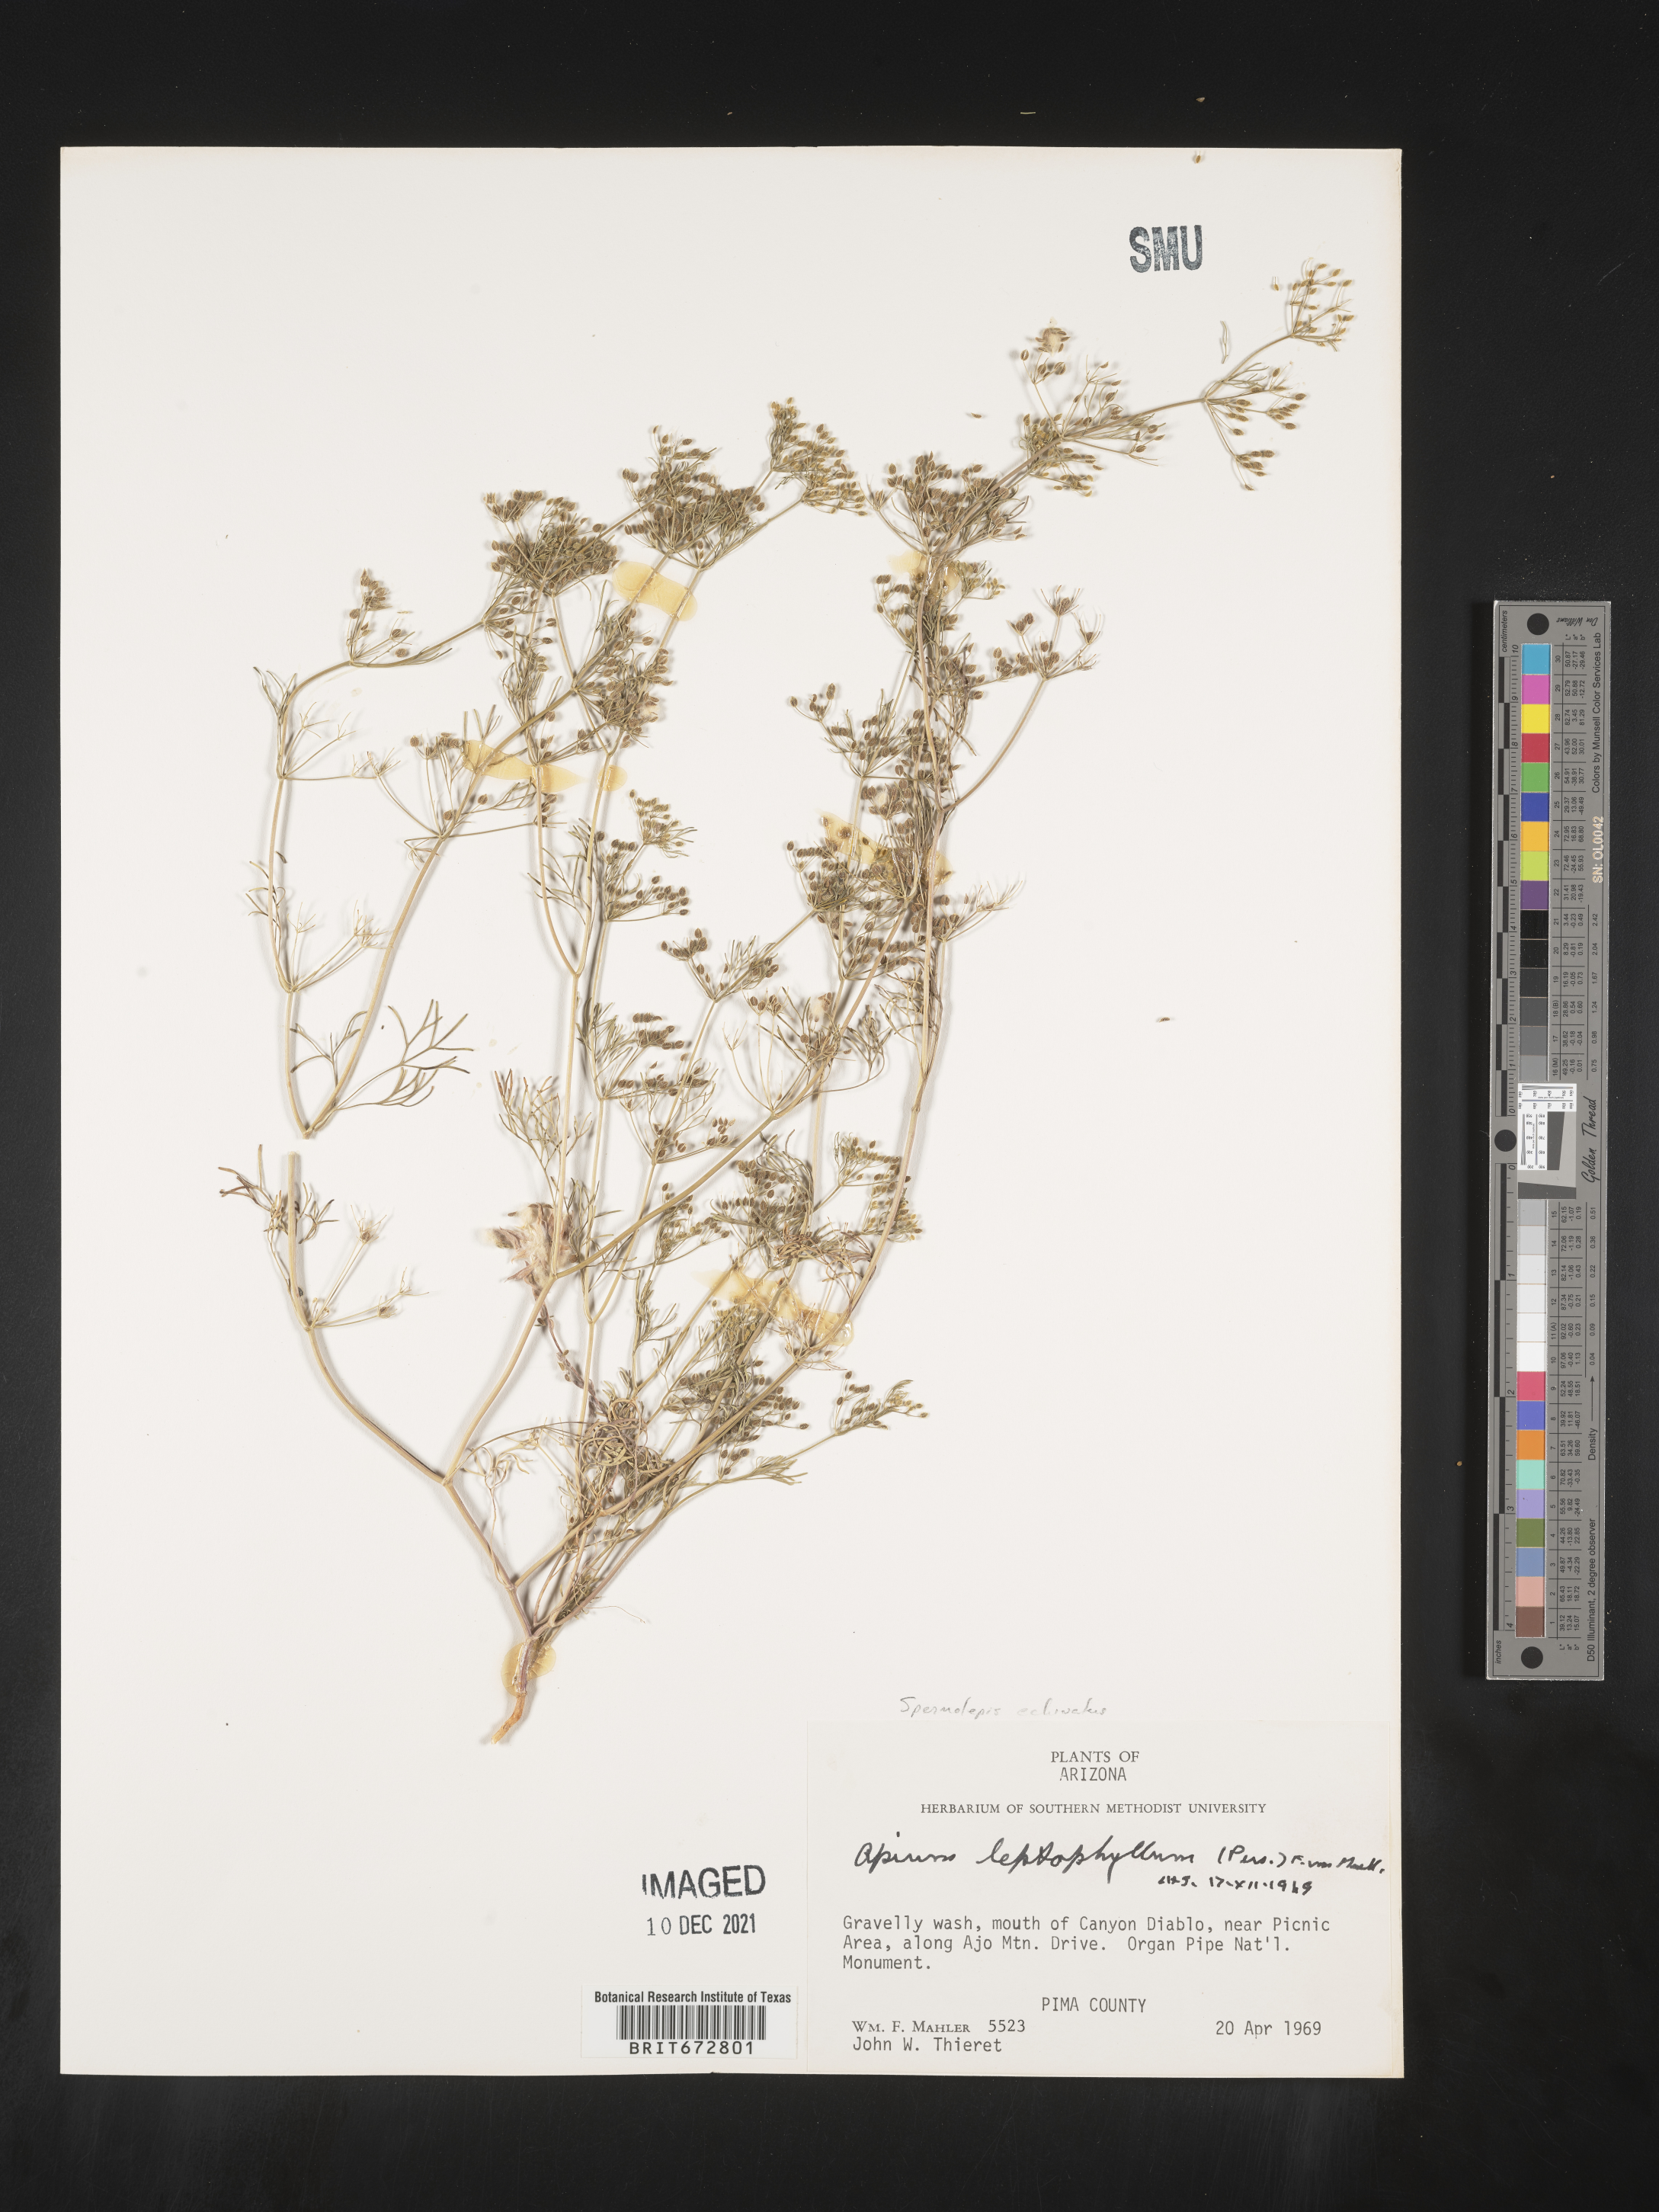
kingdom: Plantae
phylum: Tracheophyta
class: Magnoliopsida
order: Apiales
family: Apiaceae
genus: Spermolepis
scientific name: Spermolepis echinatus
